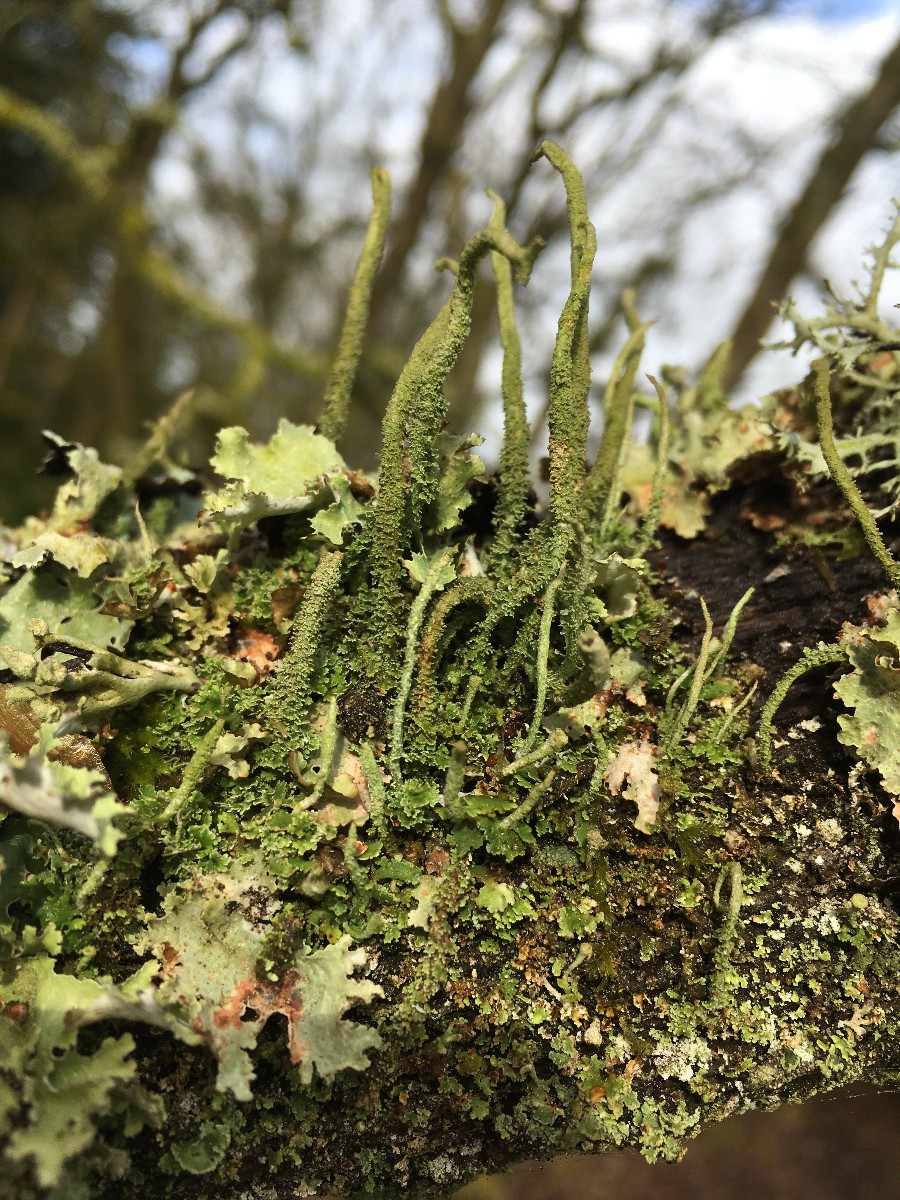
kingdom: Fungi
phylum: Ascomycota
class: Lecanoromycetes
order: Lecanorales
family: Cladoniaceae
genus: Cladonia
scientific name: Cladonia coniocraea
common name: træfods-bægerlav
